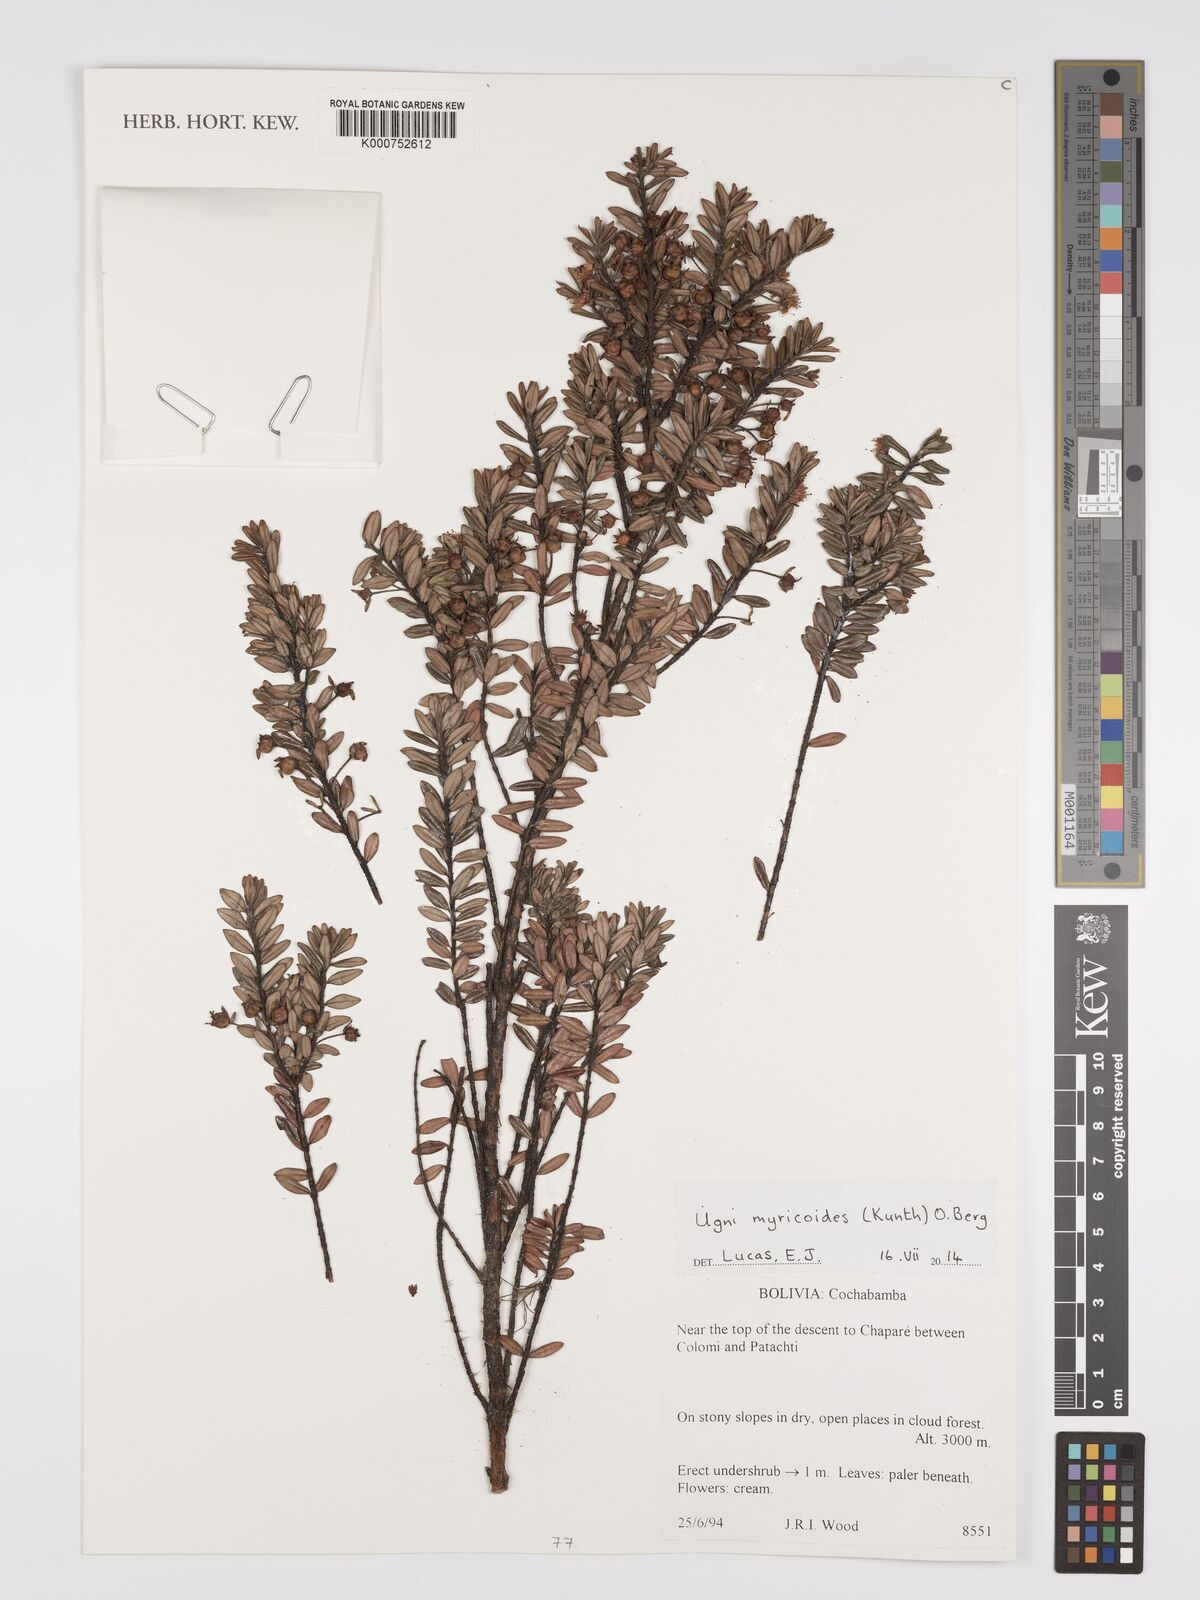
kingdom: Plantae
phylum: Tracheophyta
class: Magnoliopsida
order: Myrtales
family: Myrtaceae
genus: Ugni
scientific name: Ugni myricoides
